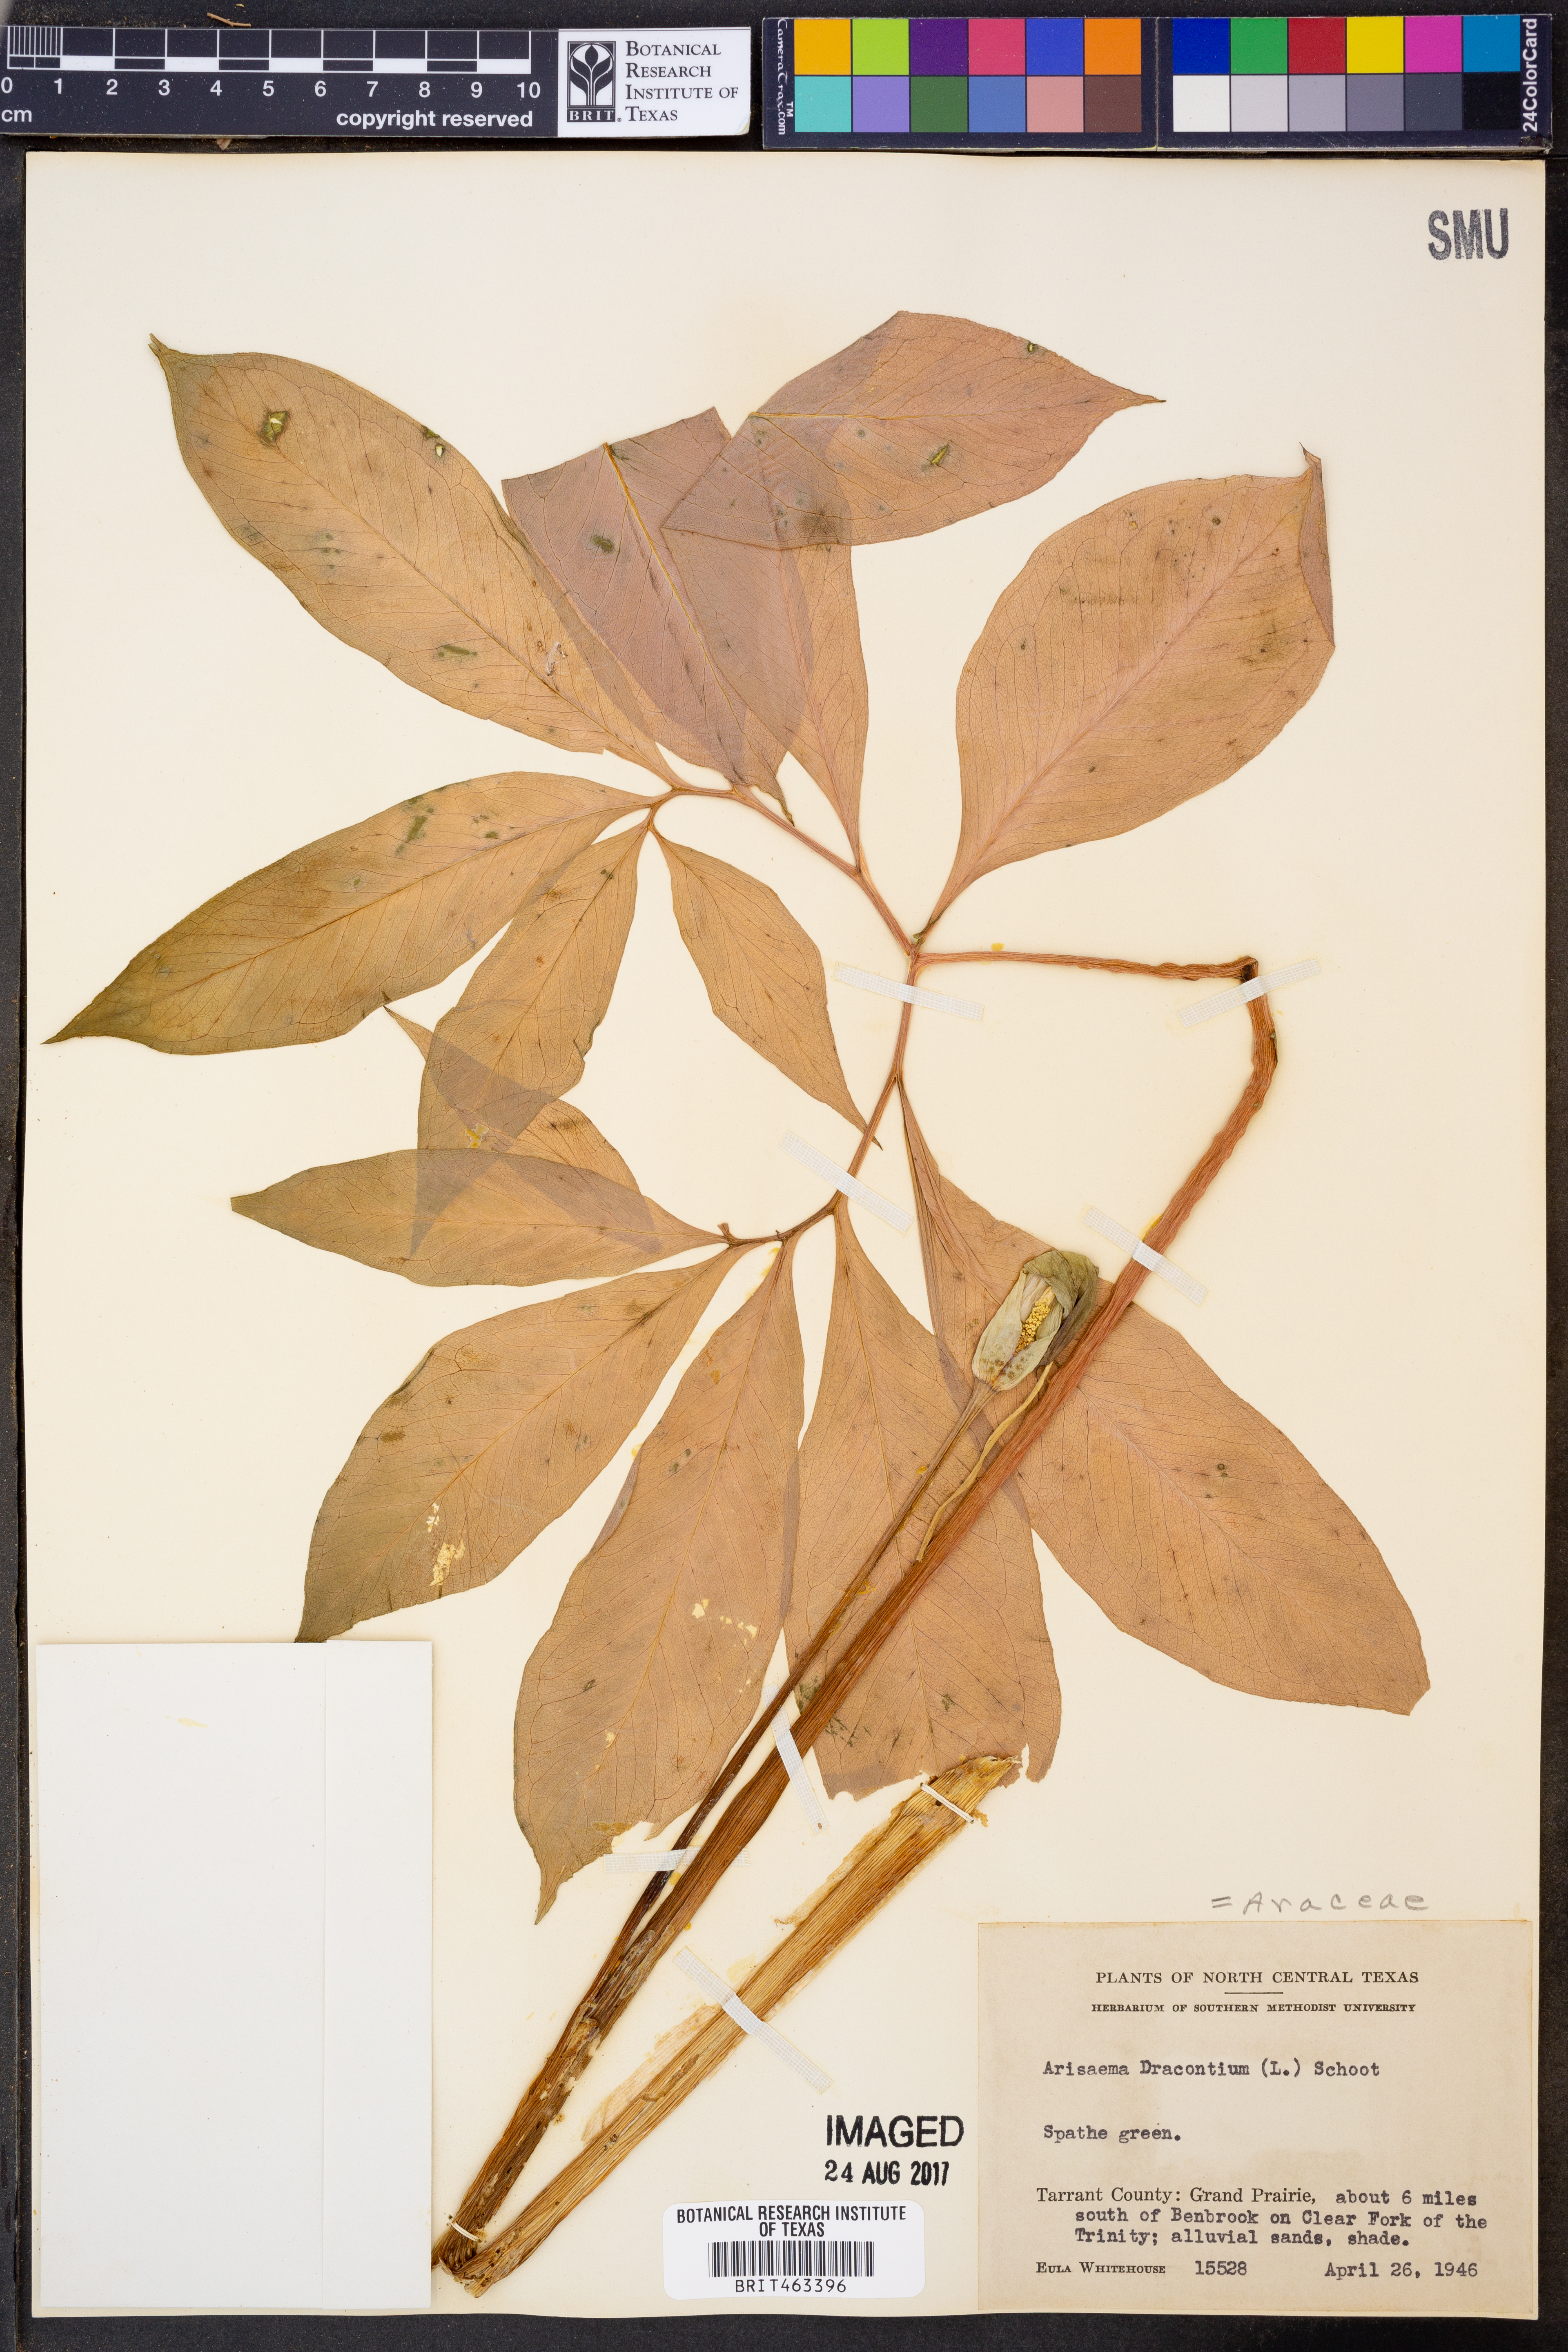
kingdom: Plantae
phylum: Tracheophyta
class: Liliopsida
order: Alismatales
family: Araceae
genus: Arisaema
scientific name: Arisaema dracontium
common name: Dragon-arum
